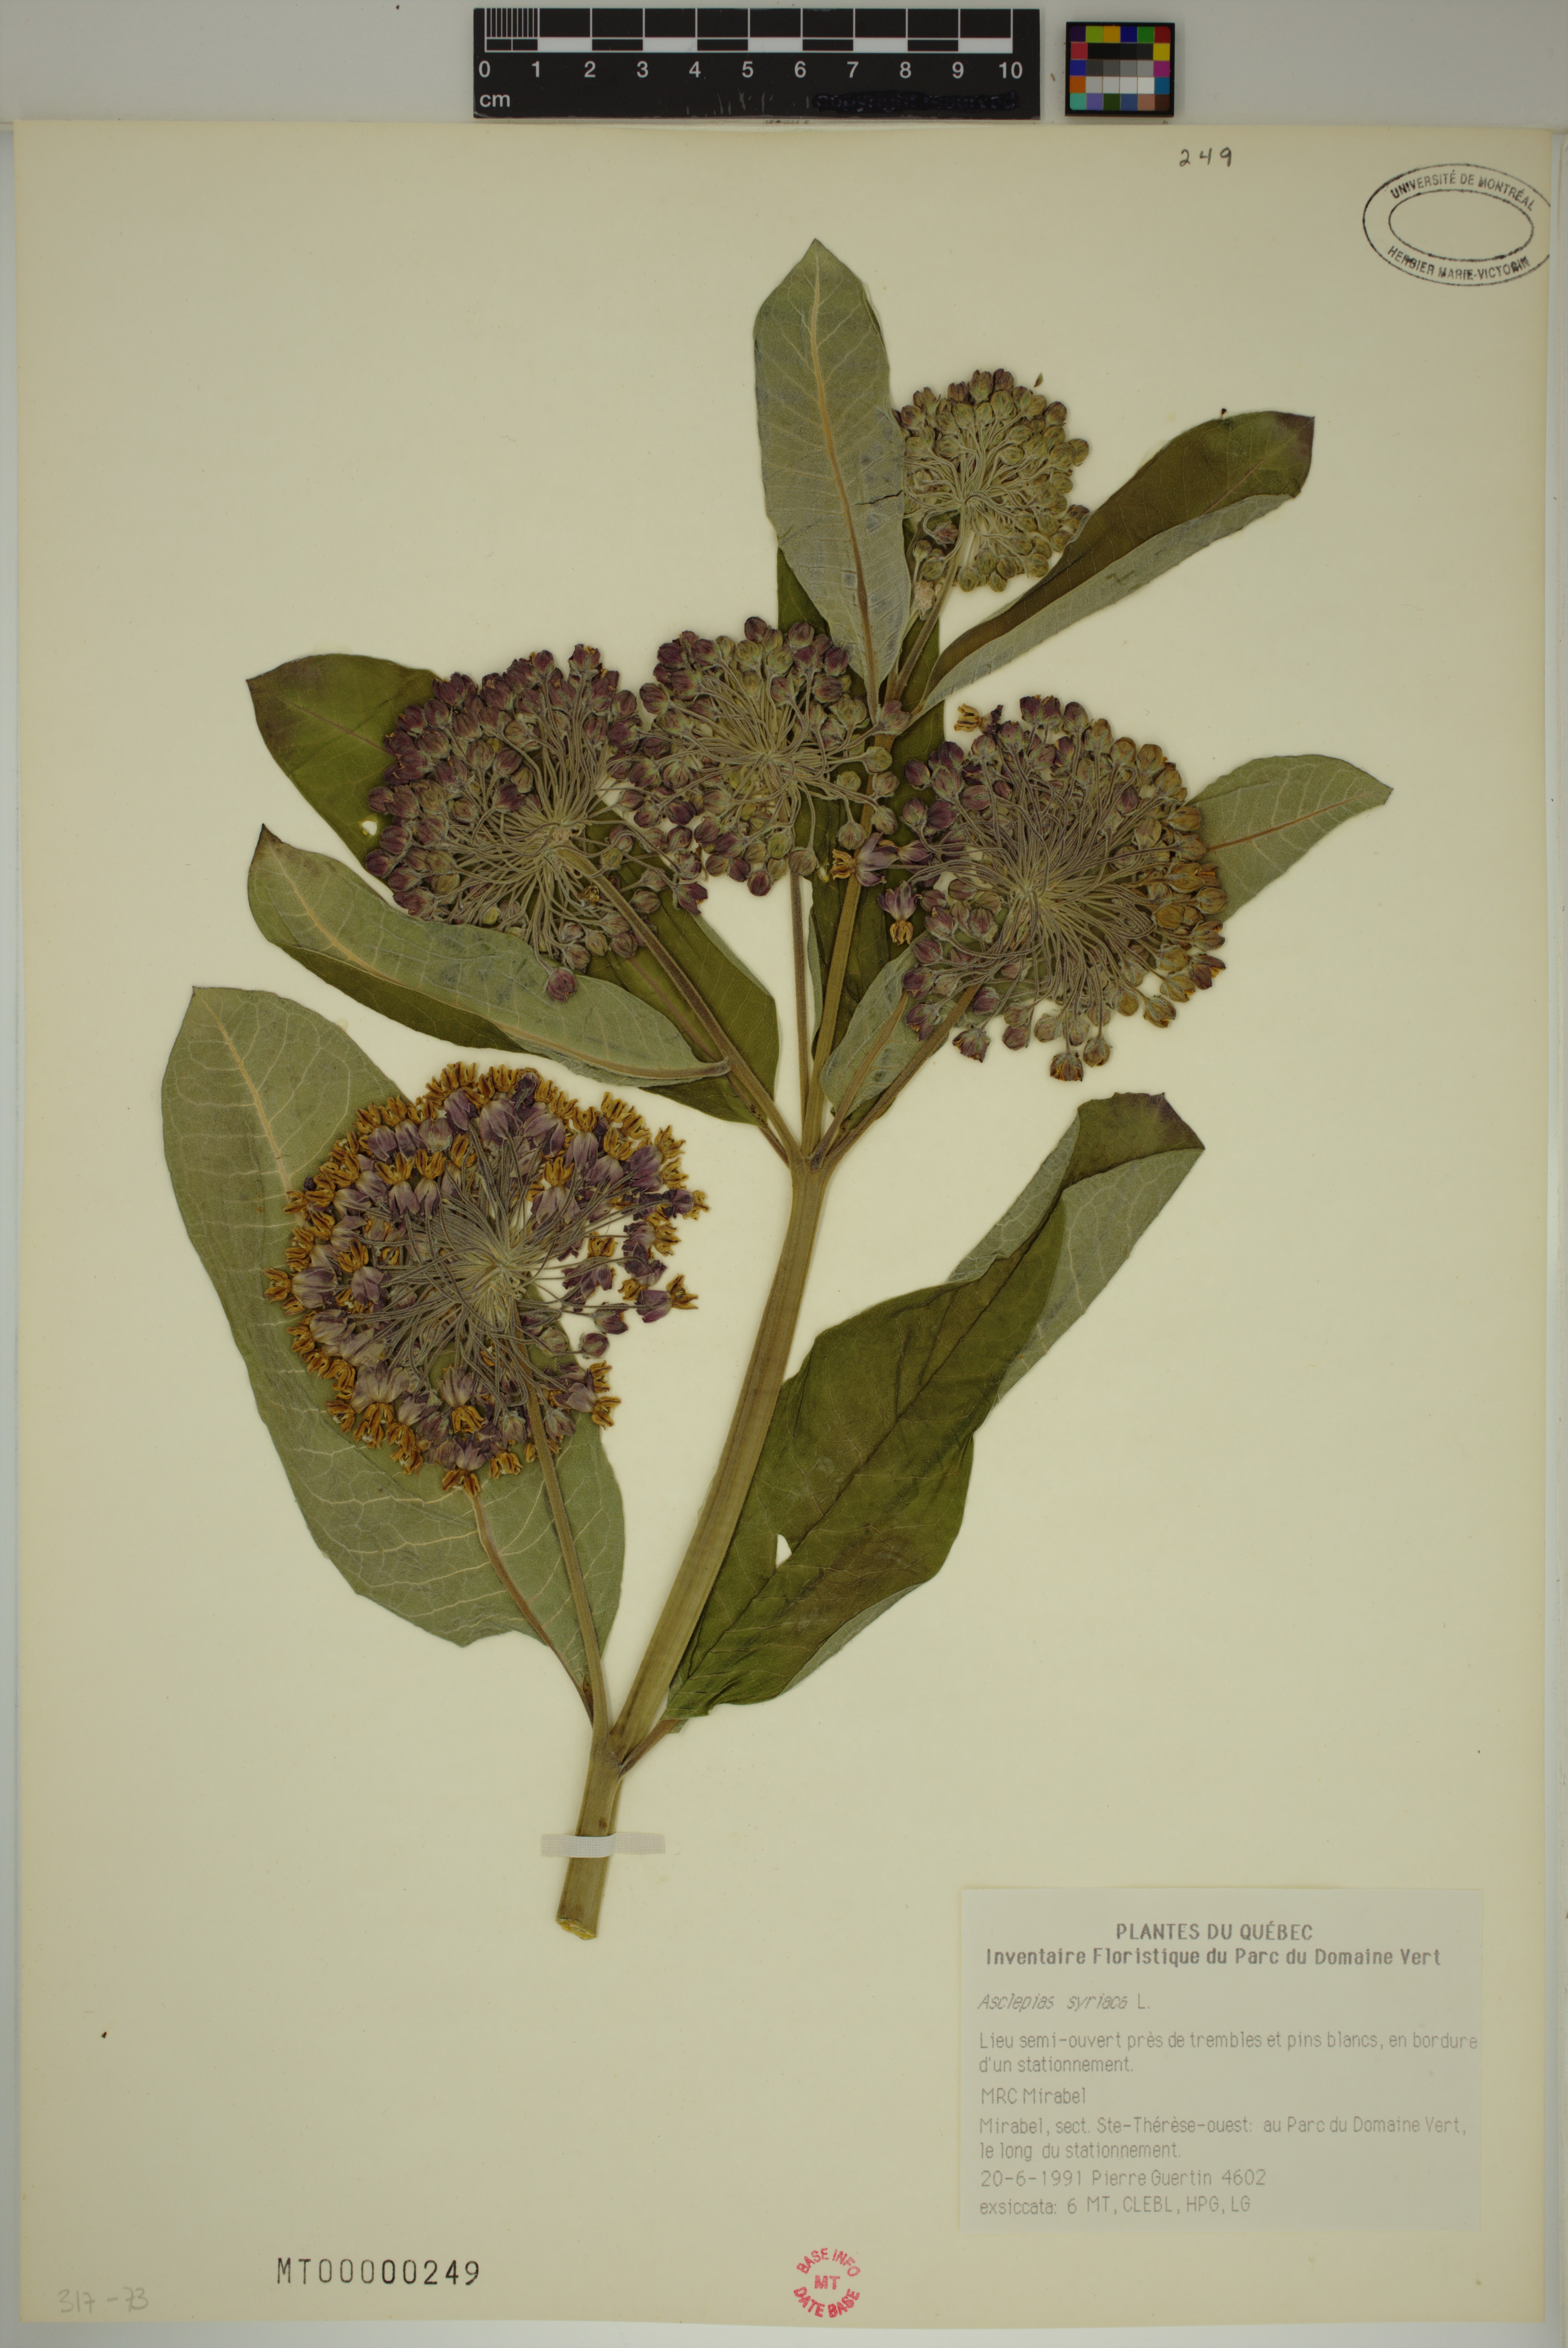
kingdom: Plantae
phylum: Tracheophyta
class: Magnoliopsida
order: Gentianales
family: Apocynaceae
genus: Asclepias
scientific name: Asclepias syriaca
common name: Common milkweed
